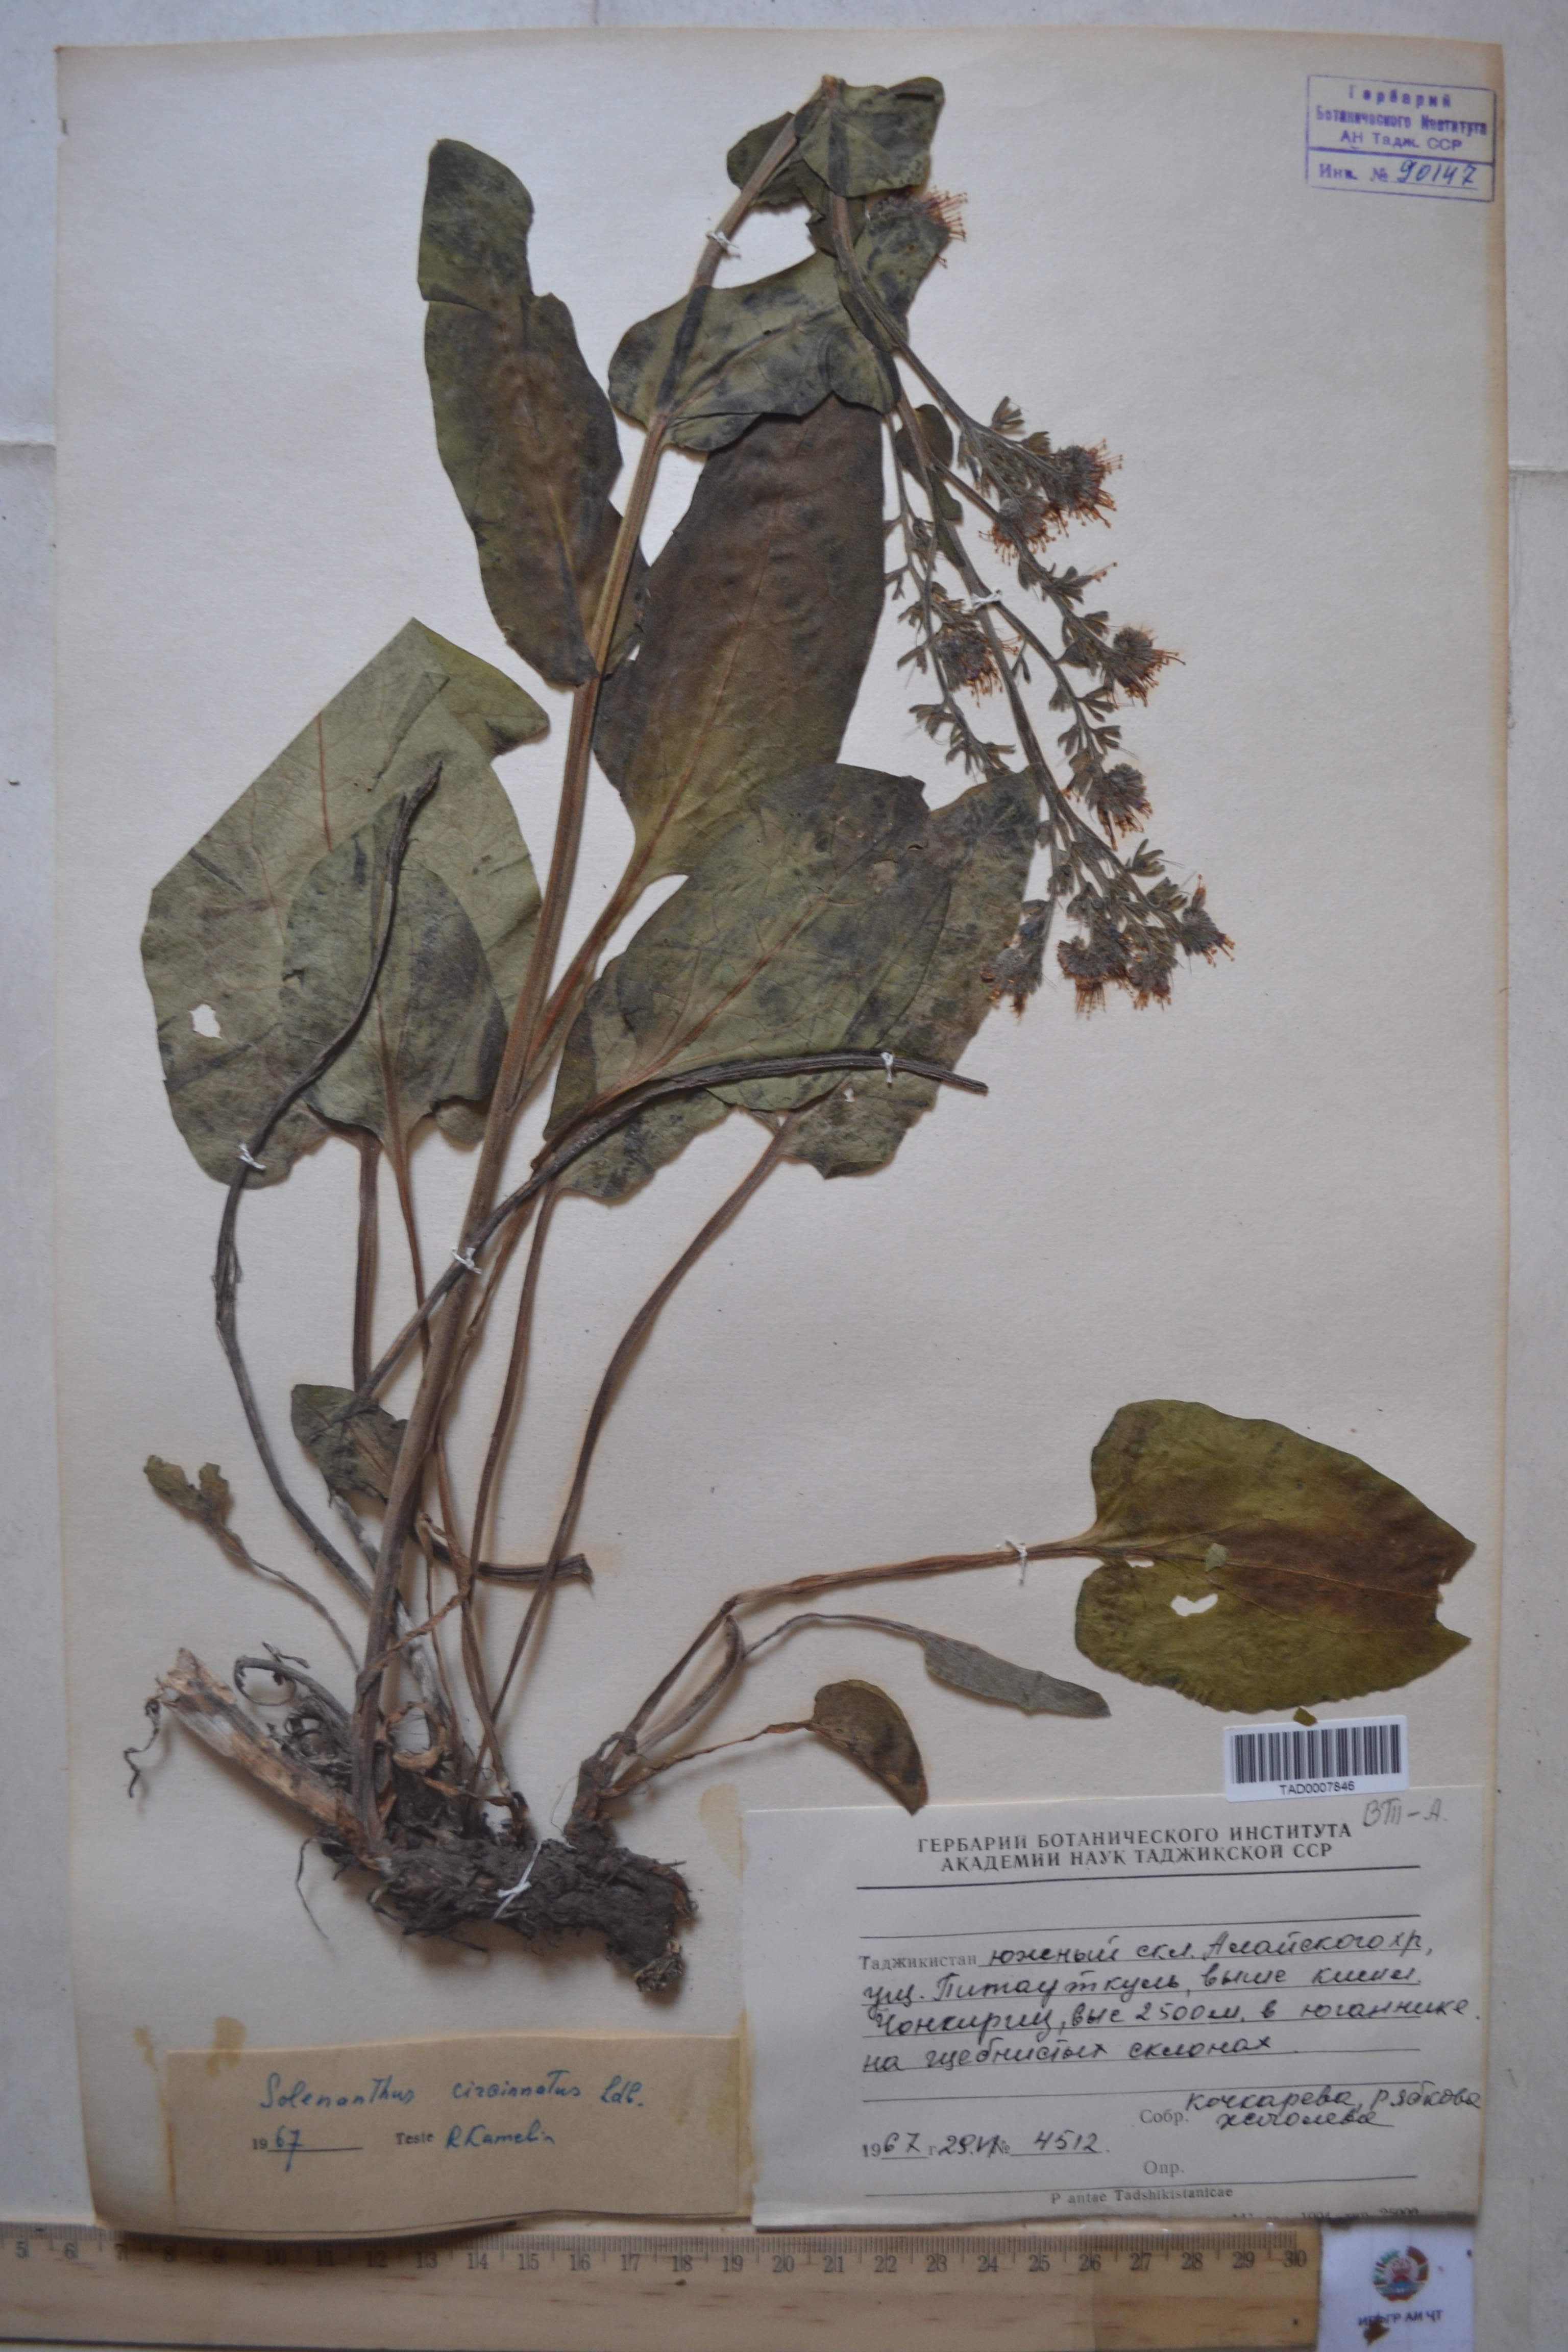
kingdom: Plantae
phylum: Tracheophyta
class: Magnoliopsida
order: Boraginales
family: Boraginaceae
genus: Solenanthus
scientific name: Solenanthus circinnatus
